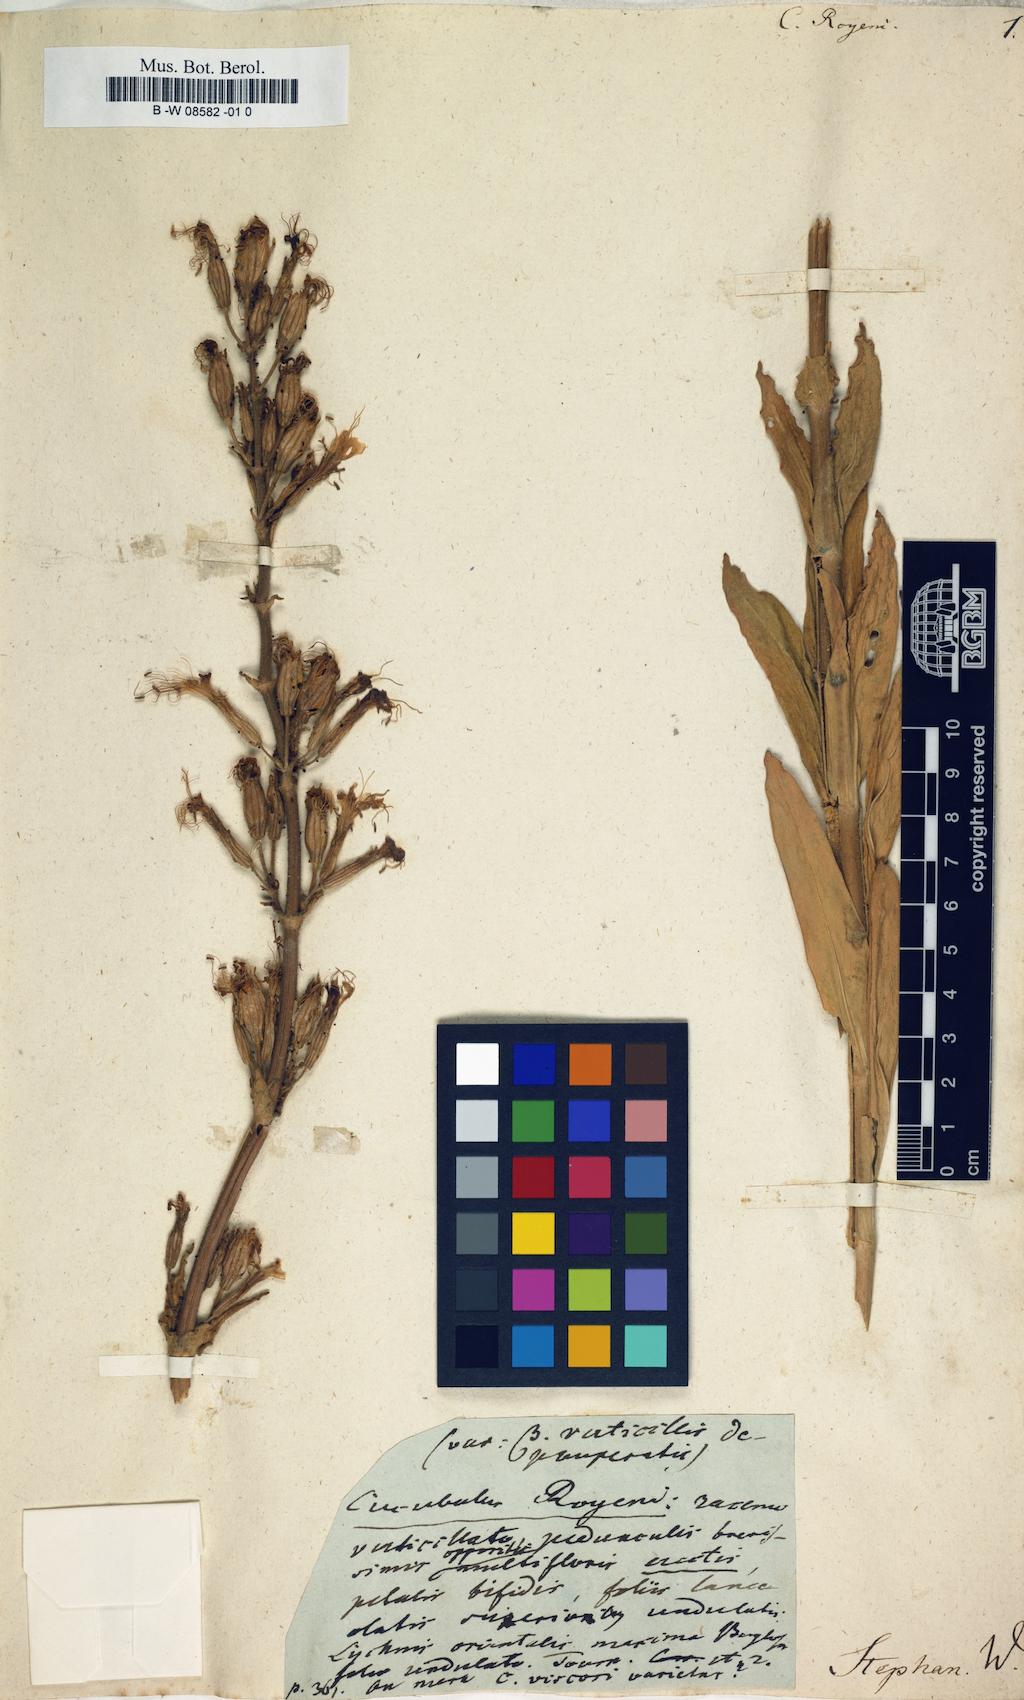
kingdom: Plantae
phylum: Tracheophyta
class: Magnoliopsida
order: Caryophyllales
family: Caryophyllaceae
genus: Silene
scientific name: Silene viscosa
